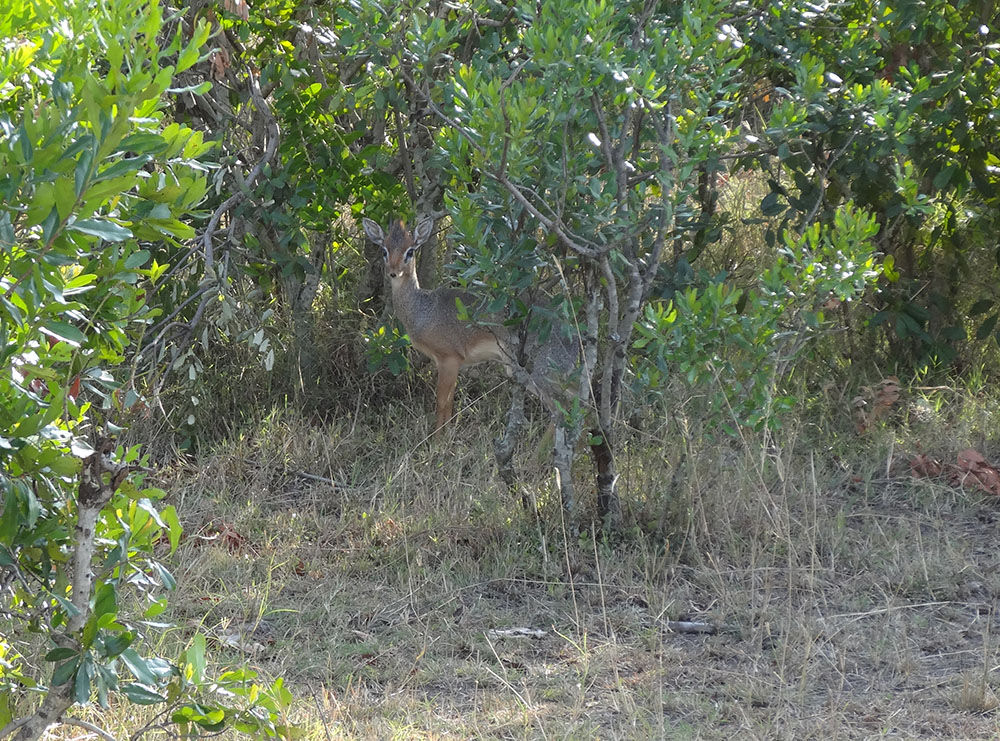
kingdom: Animalia
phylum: Chordata
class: Mammalia
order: Artiodactyla
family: Bovidae
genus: Madoqua
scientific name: Madoqua kirkii
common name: Kirk's dik-dik
